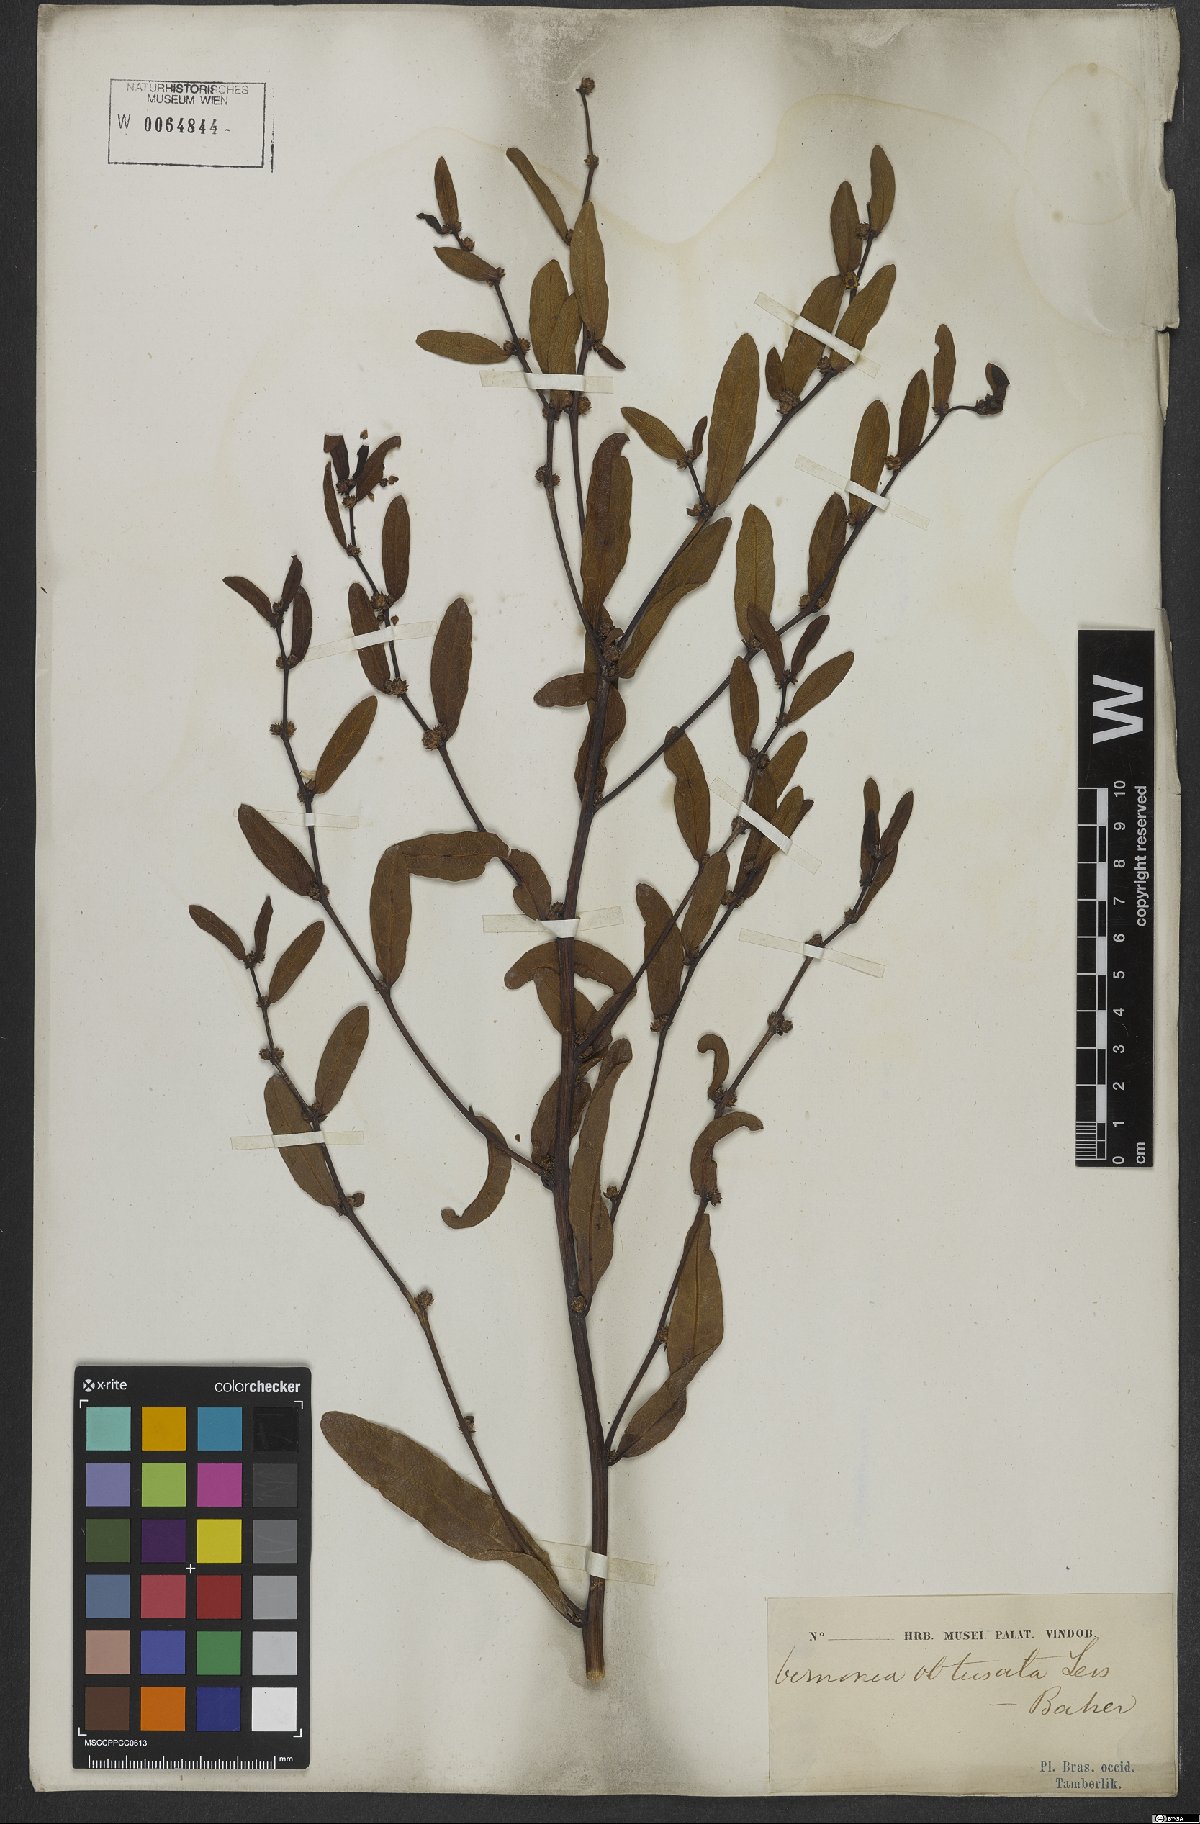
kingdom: Plantae
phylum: Tracheophyta
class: Magnoliopsida
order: Asterales
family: Asteraceae
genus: Lessingianthus
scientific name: Lessingianthus obtusatus
